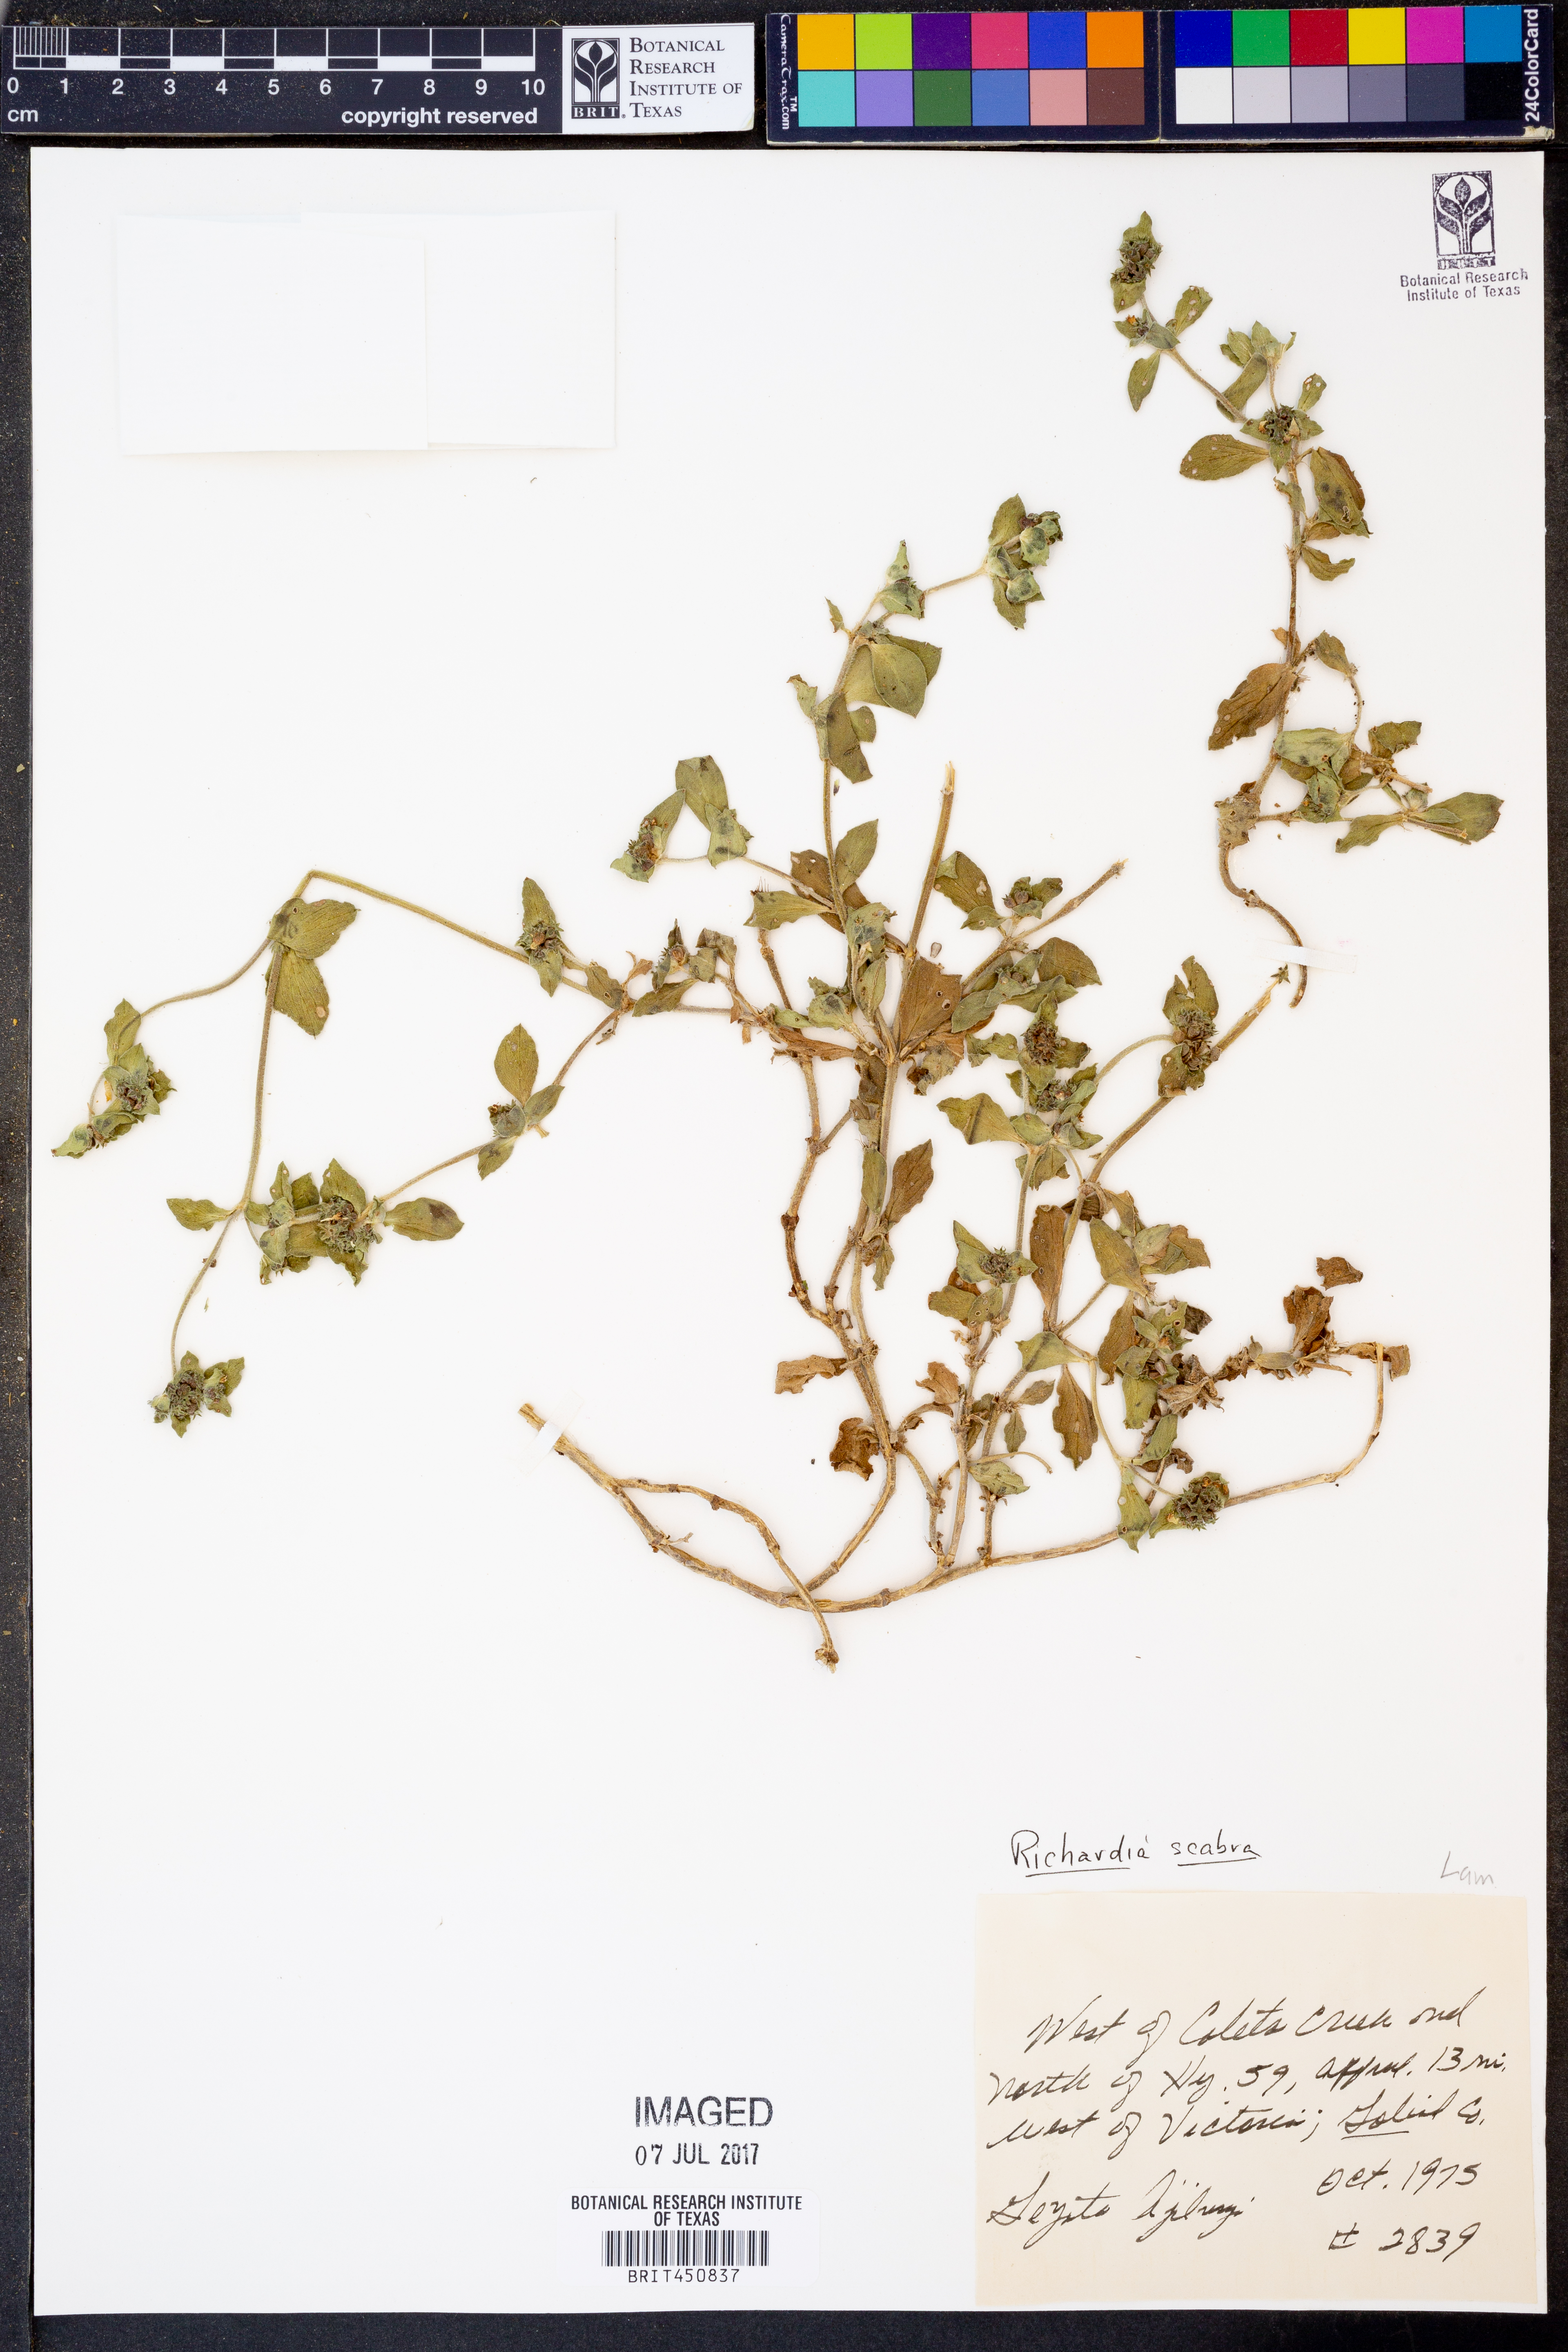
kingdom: Plantae
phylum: Tracheophyta
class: Magnoliopsida
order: Gentianales
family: Rubiaceae
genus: Richardia
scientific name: Richardia scabra
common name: Rough mexican clover
